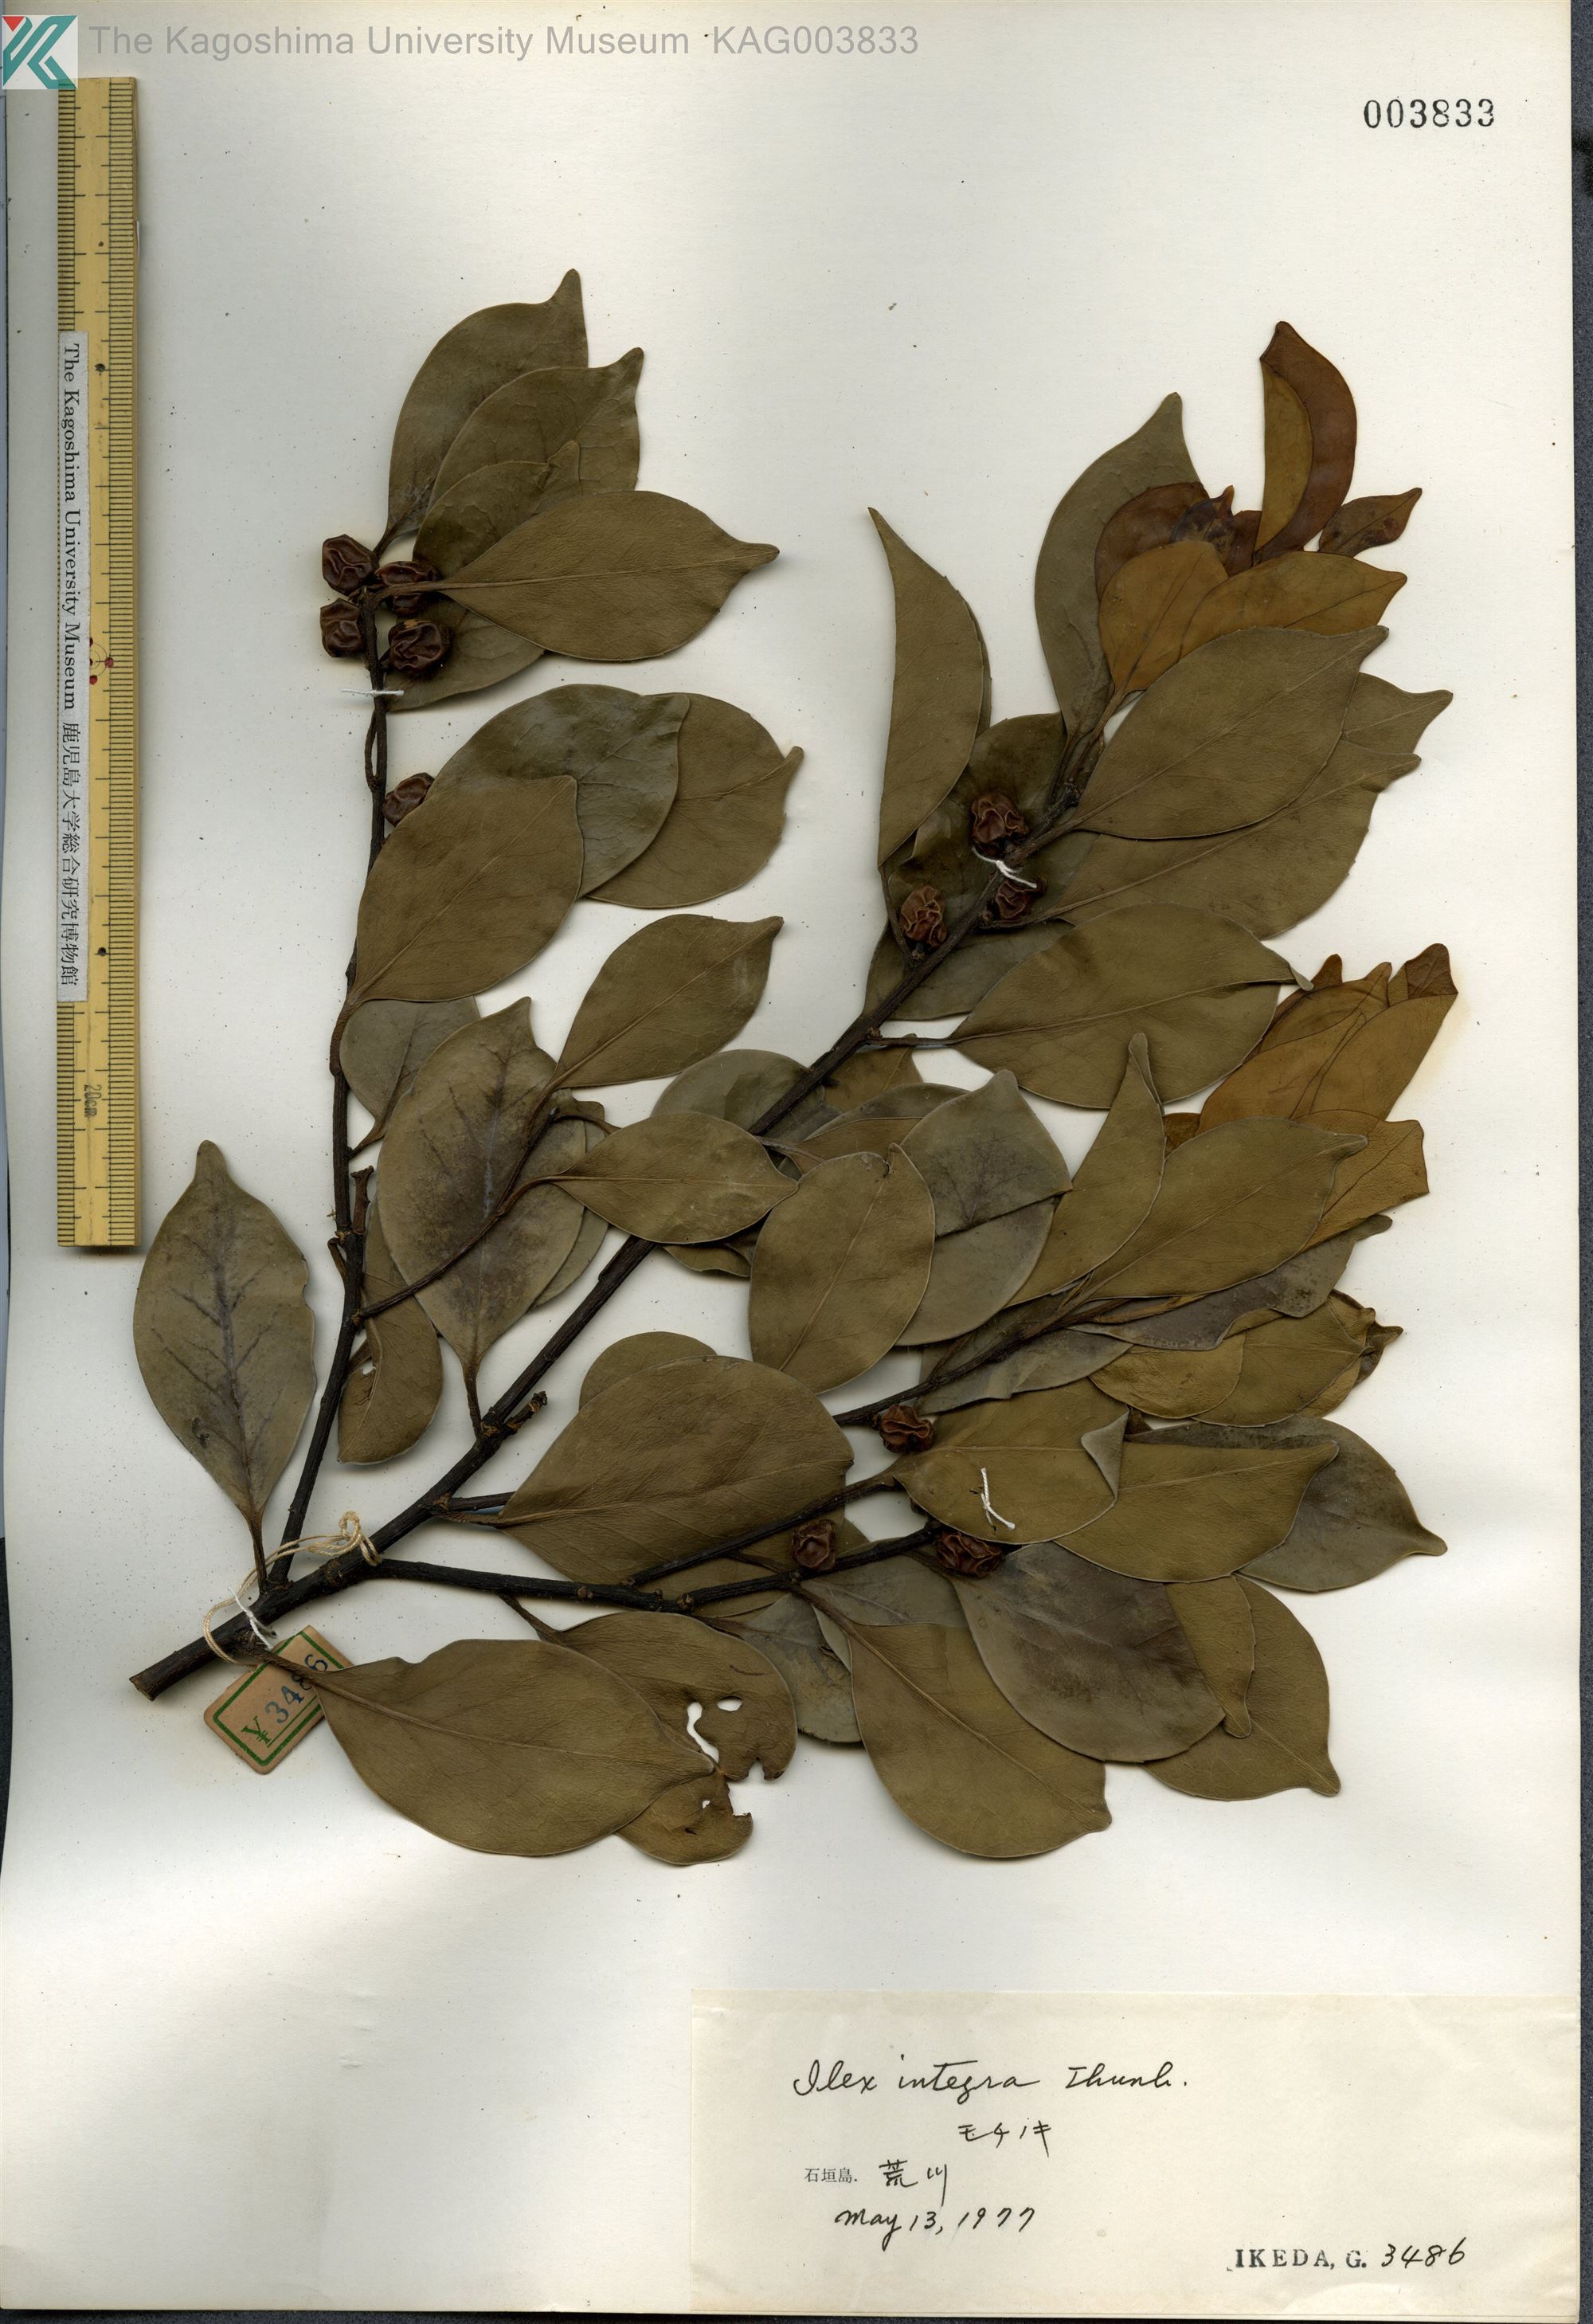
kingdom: Plantae
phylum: Tracheophyta
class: Magnoliopsida
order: Aquifoliales
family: Aquifoliaceae
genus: Ilex
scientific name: Ilex integra
